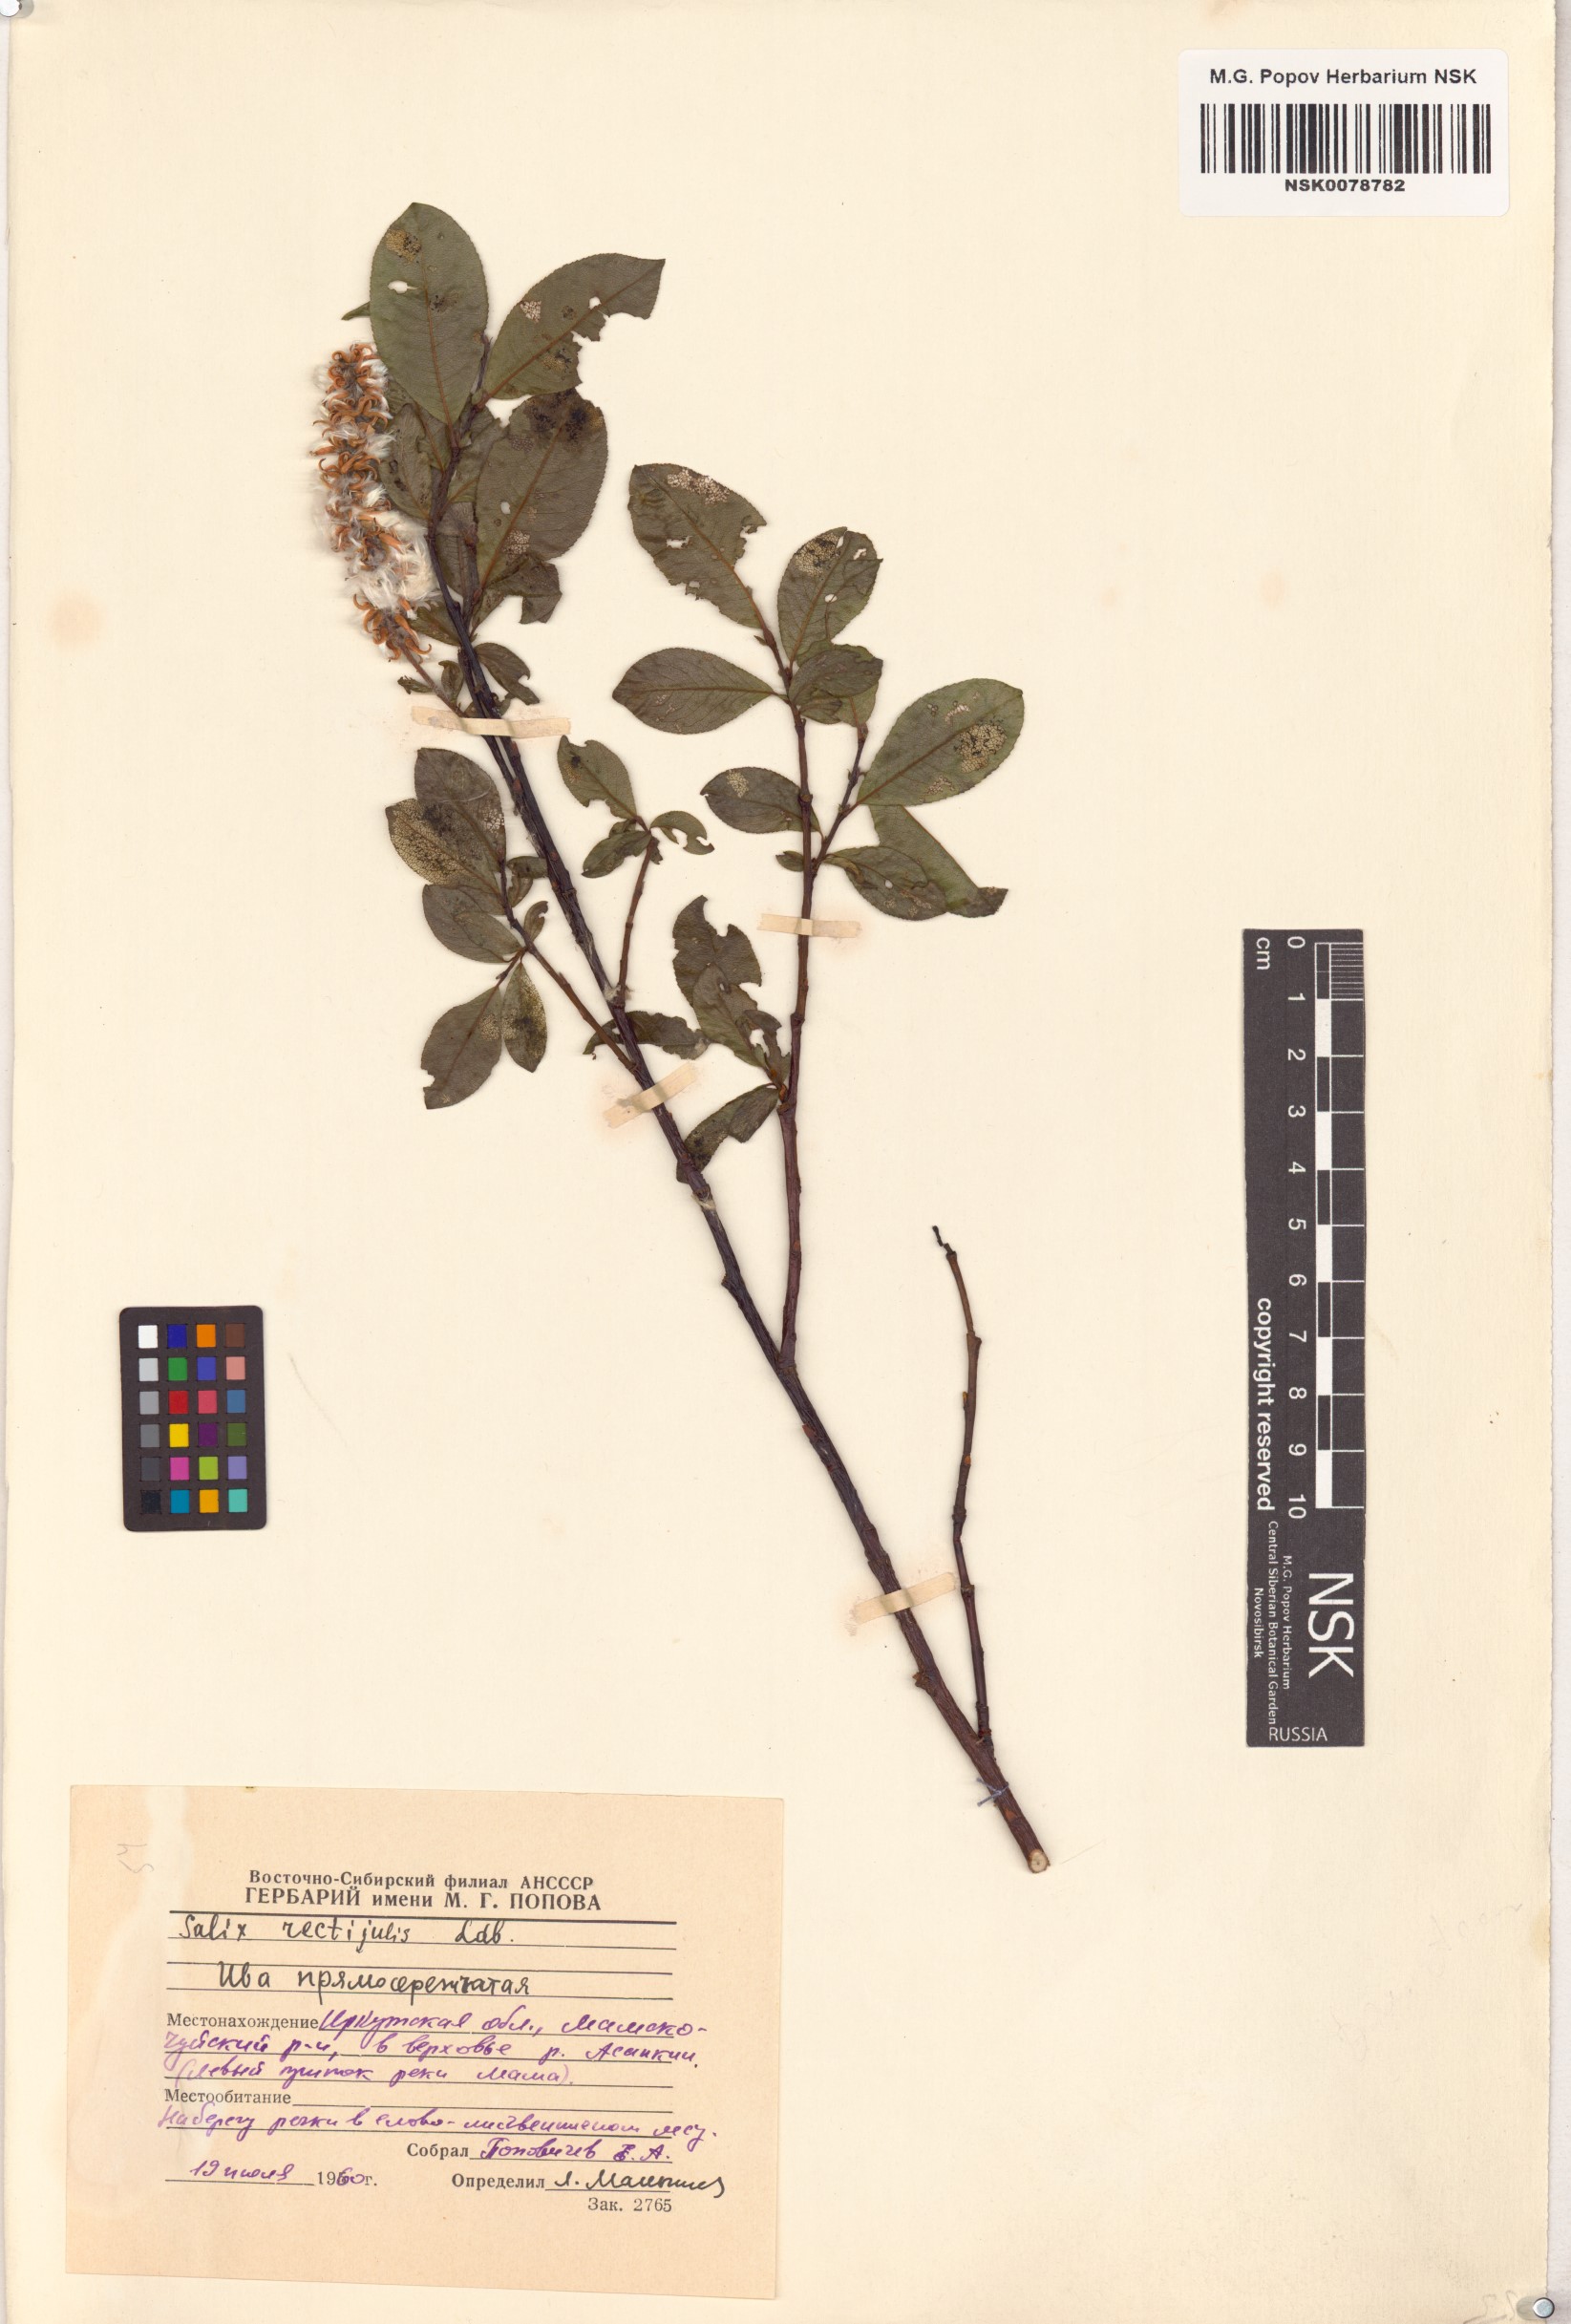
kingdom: Plantae
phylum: Tracheophyta
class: Magnoliopsida
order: Malpighiales
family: Salicaceae
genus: Salix
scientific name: Salix rectijulis
